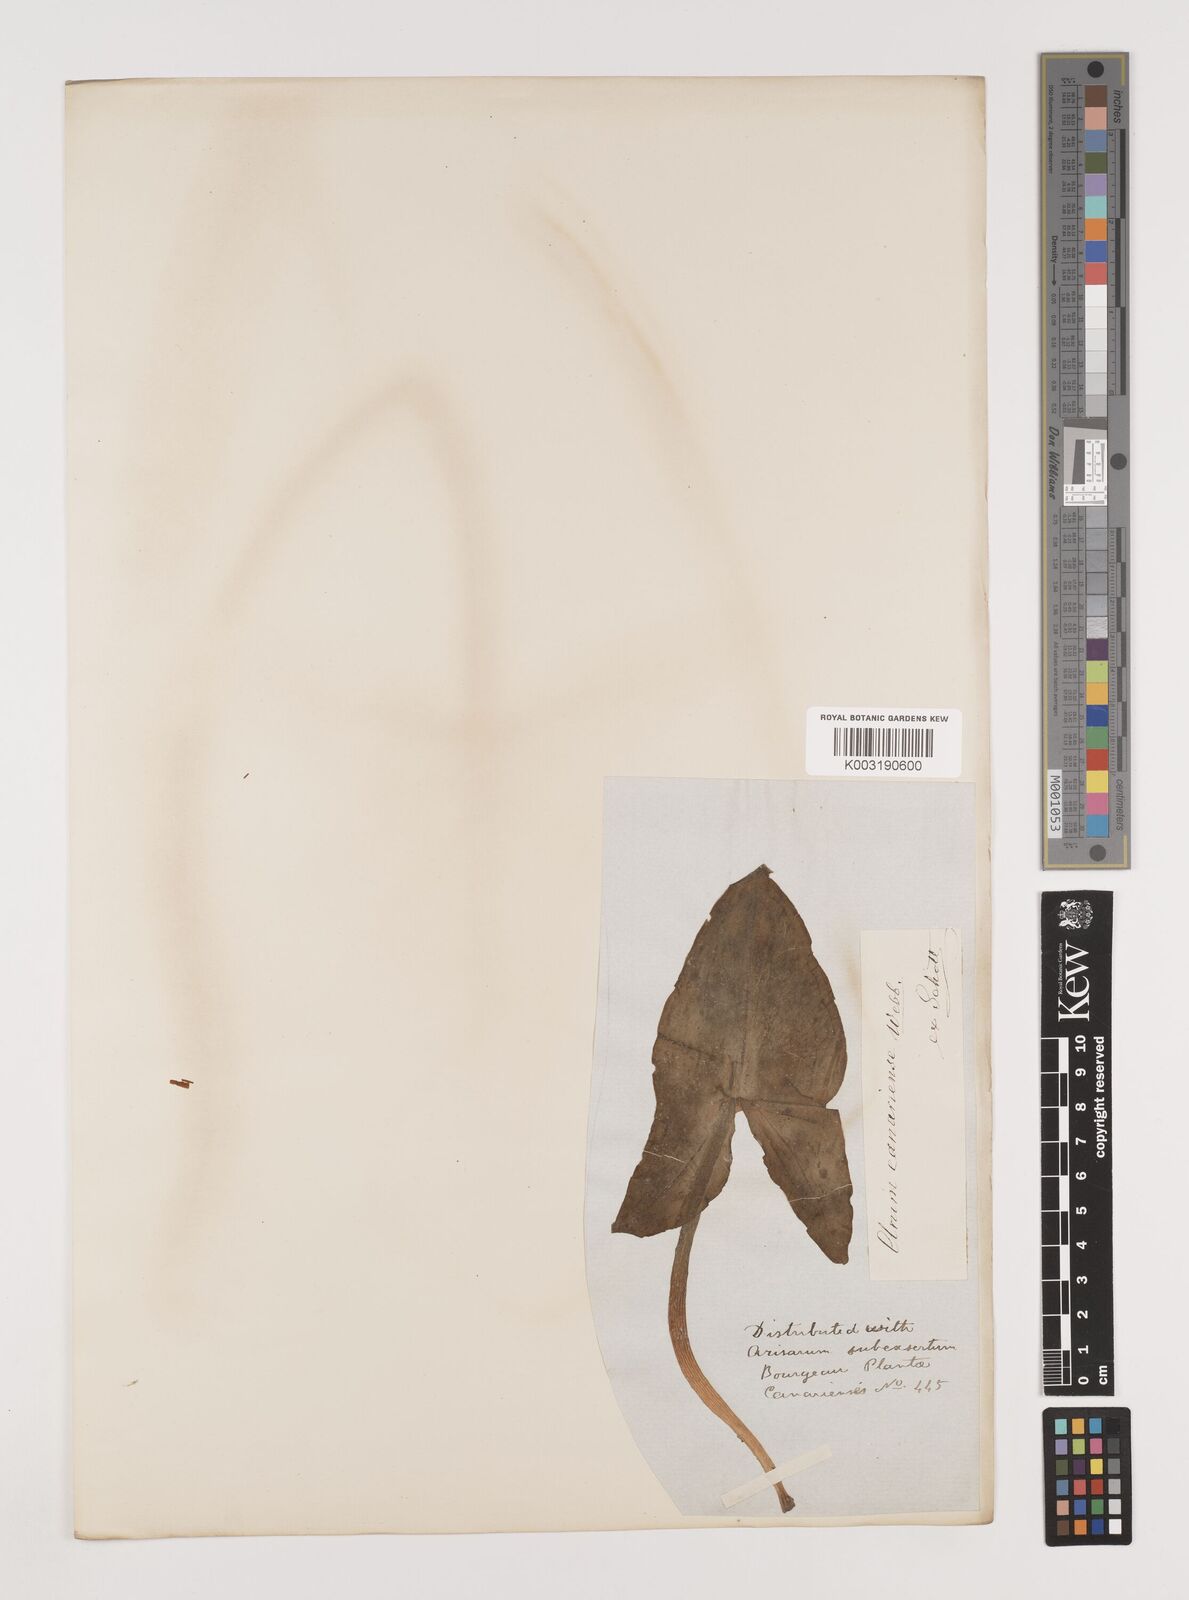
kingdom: Plantae
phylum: Tracheophyta
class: Liliopsida
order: Alismatales
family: Araceae
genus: Arum
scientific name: Arum italicum
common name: Italian lords-and-ladies
